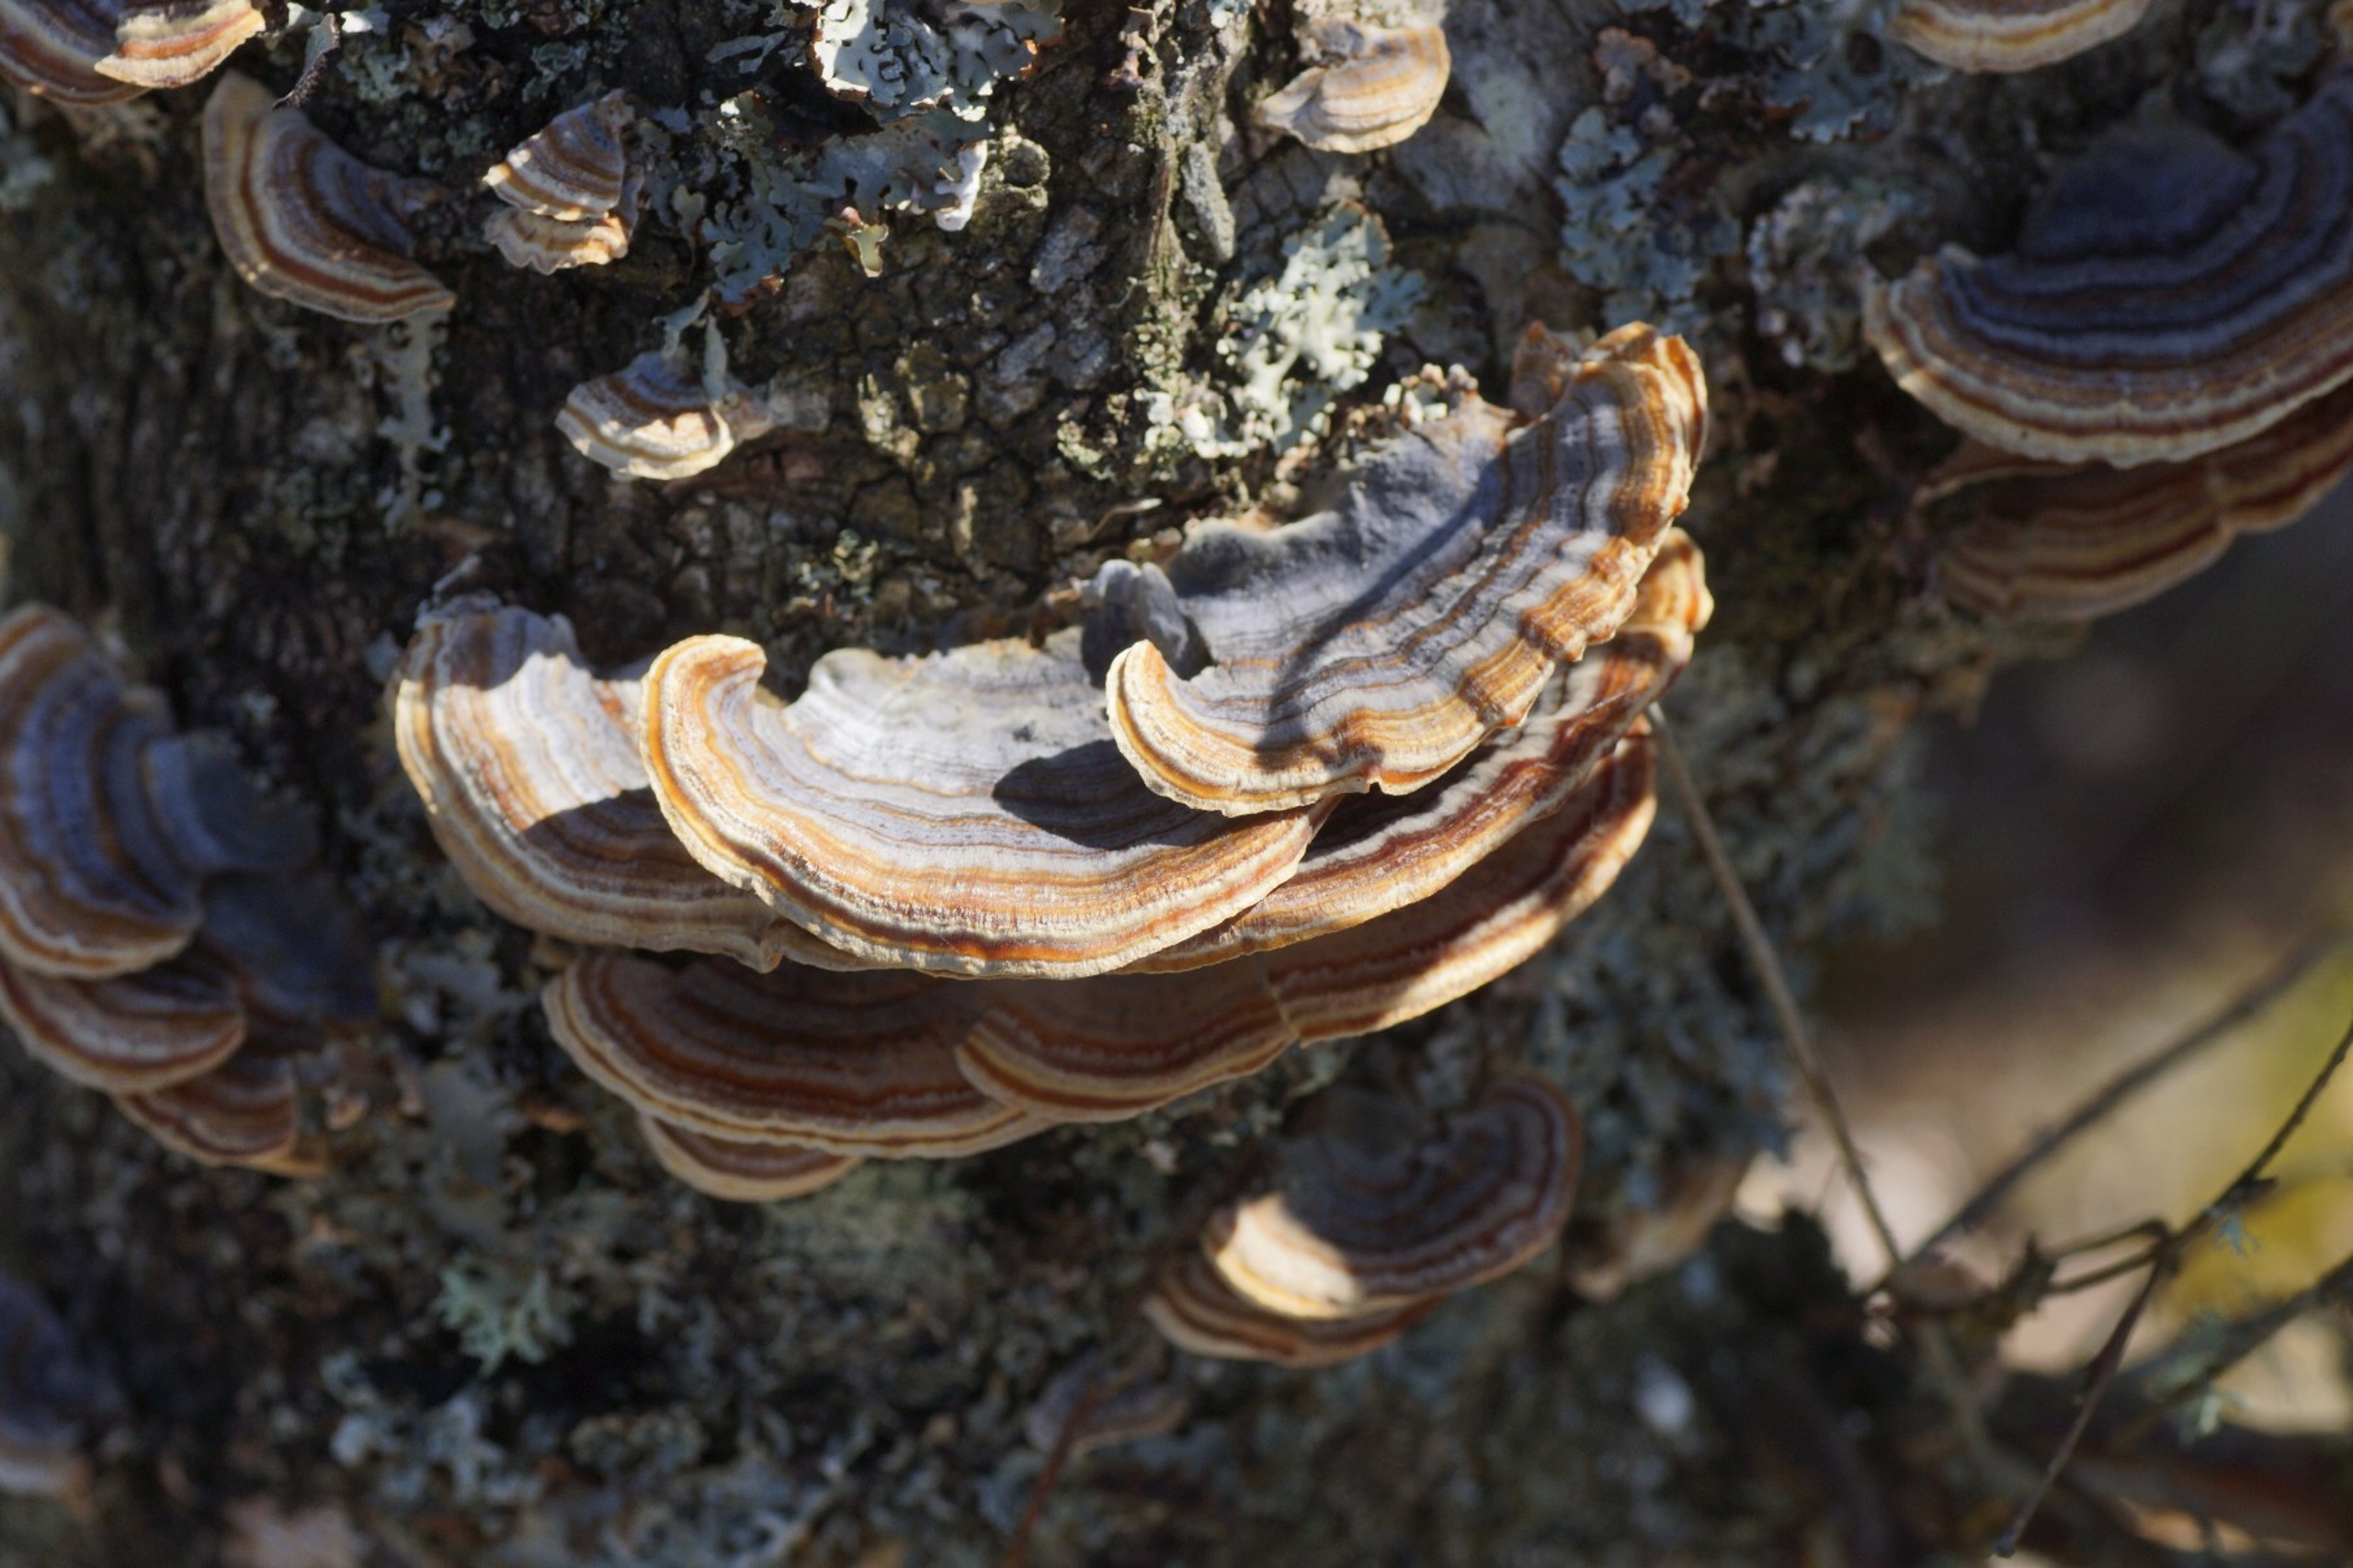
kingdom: Fungi
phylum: Basidiomycota
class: Agaricomycetes
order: Polyporales
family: Polyporaceae
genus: Trametes
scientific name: Trametes versicolor
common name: Broget læderporesvamp
